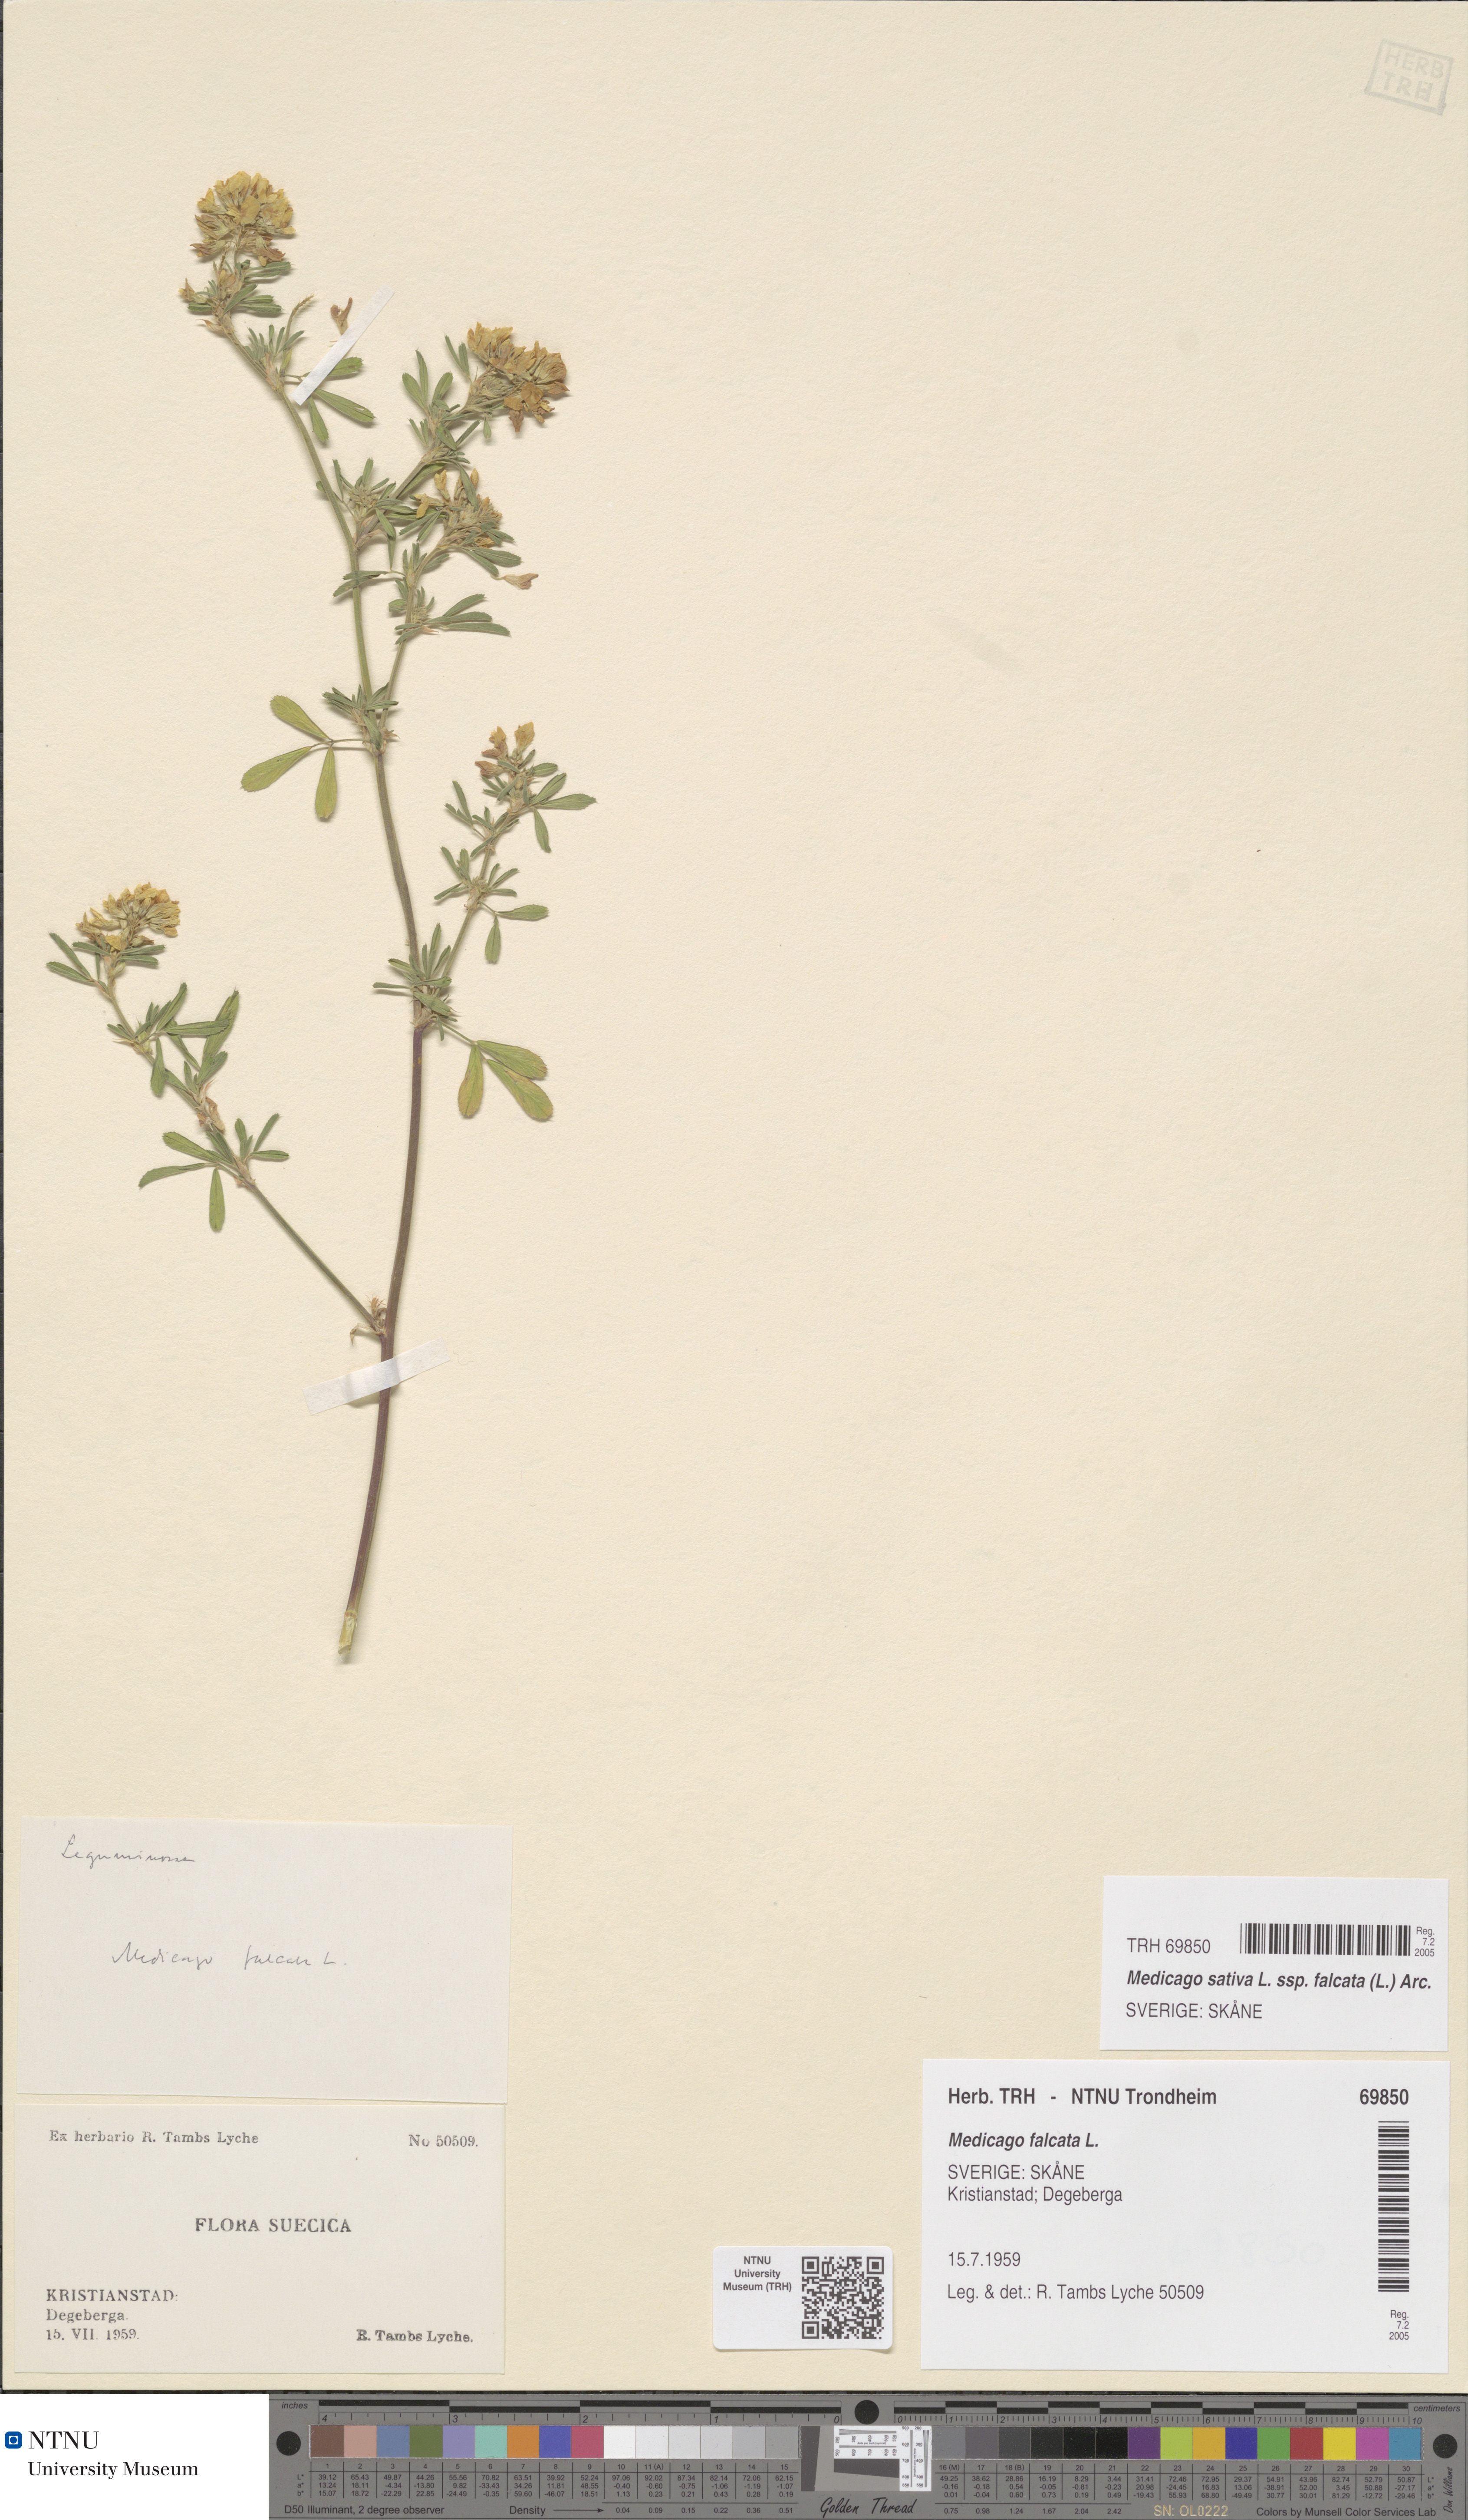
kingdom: Plantae
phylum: Tracheophyta
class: Magnoliopsida
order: Fabales
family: Fabaceae
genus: Medicago
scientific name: Medicago falcata
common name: Sickle medick
